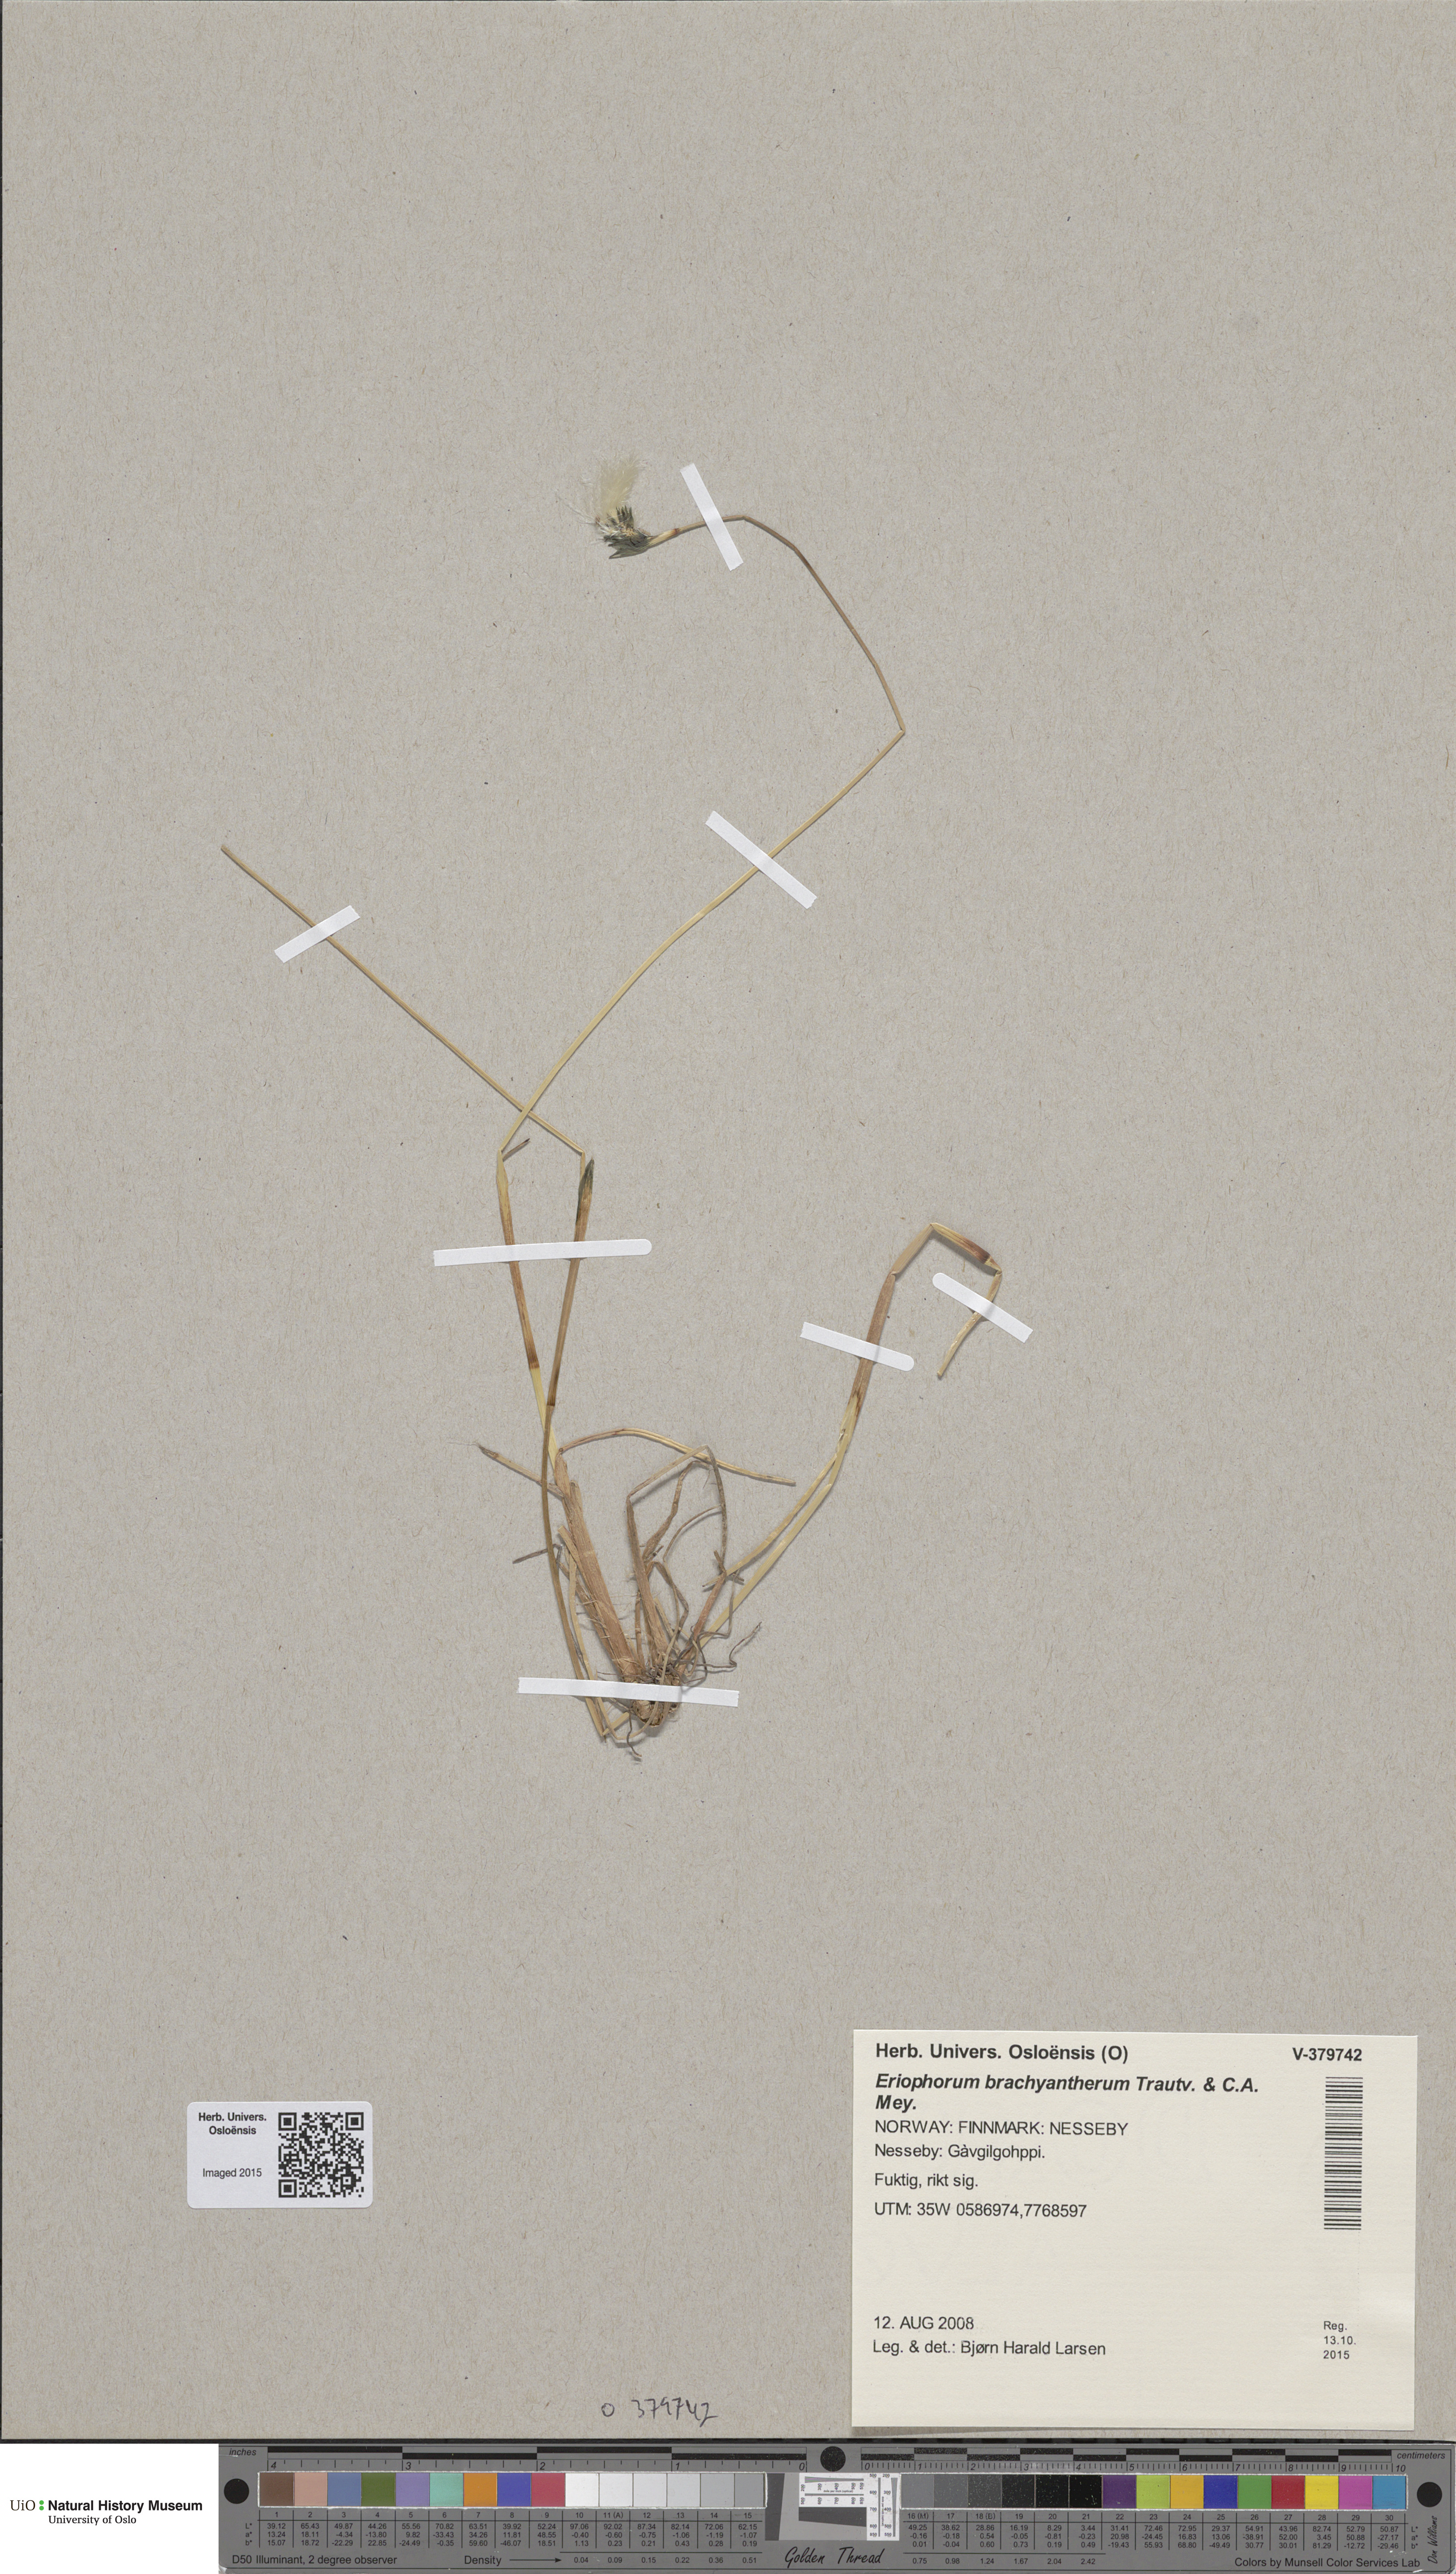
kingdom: Plantae
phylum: Tracheophyta
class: Liliopsida
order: Poales
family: Cyperaceae
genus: Eriophorum
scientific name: Eriophorum brachyantherum
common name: Closed-sheathed cottongrass
